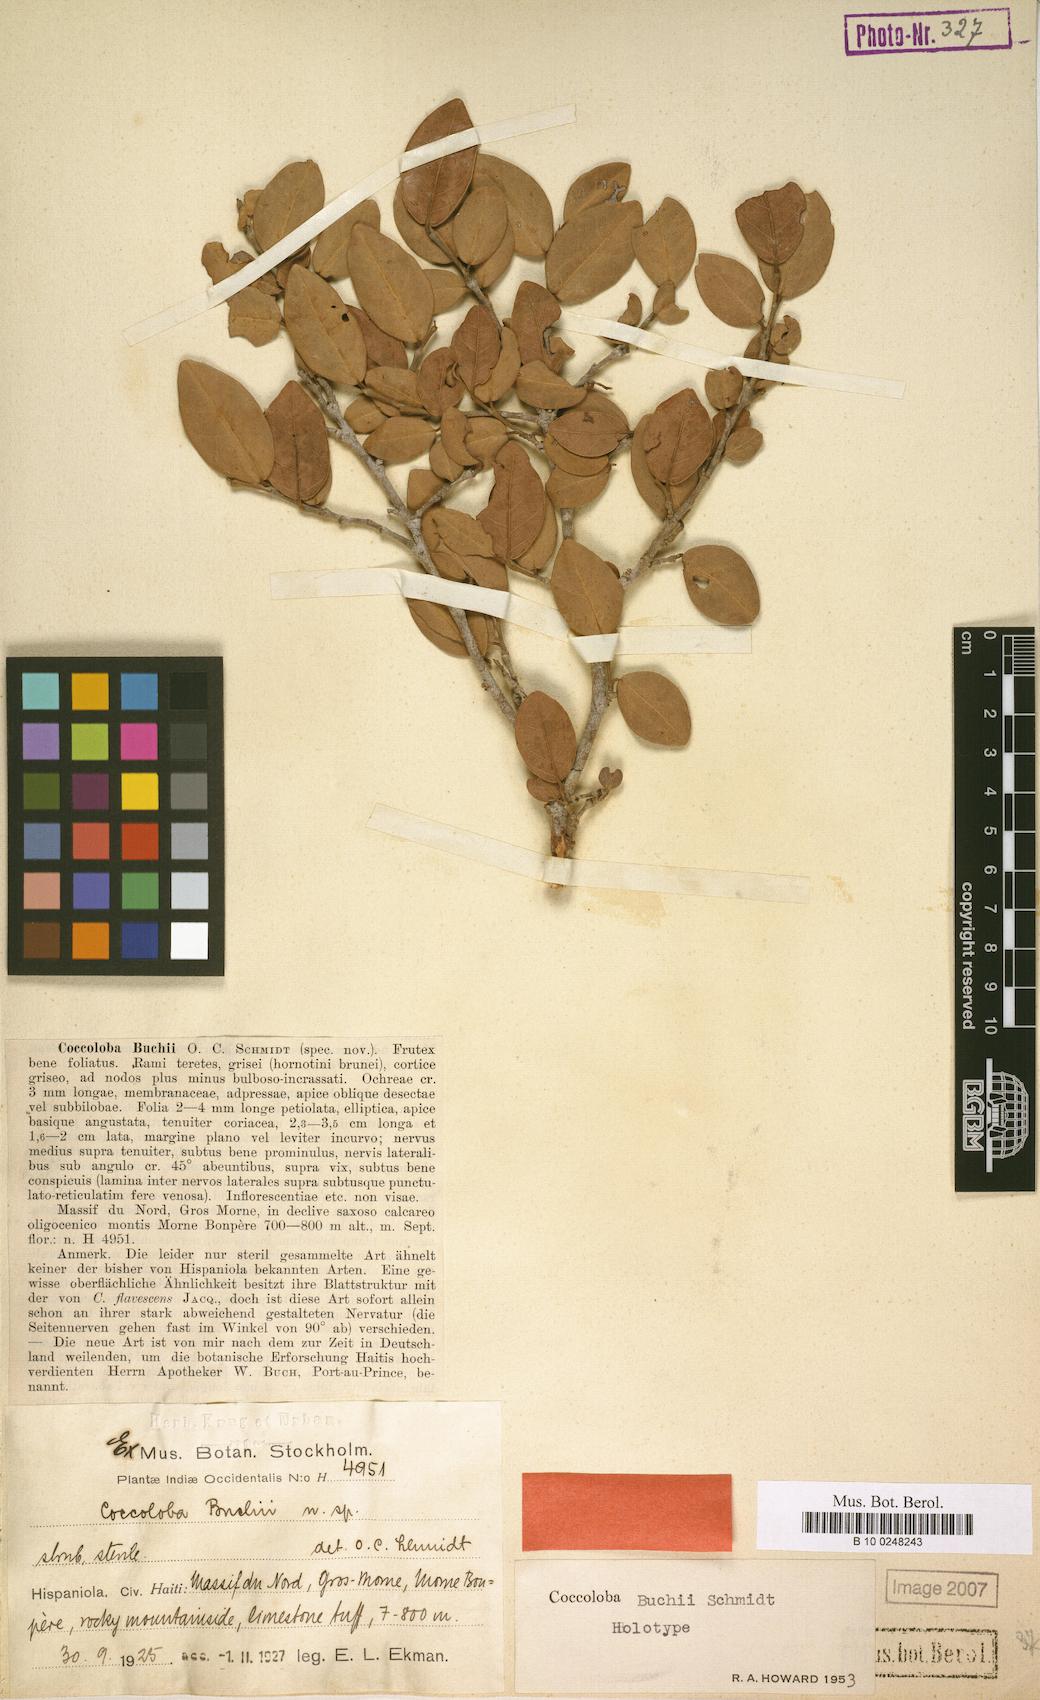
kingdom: Plantae
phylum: Tracheophyta
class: Magnoliopsida
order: Caryophyllales
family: Polygonaceae
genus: Coccoloba
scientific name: Coccoloba buchii
